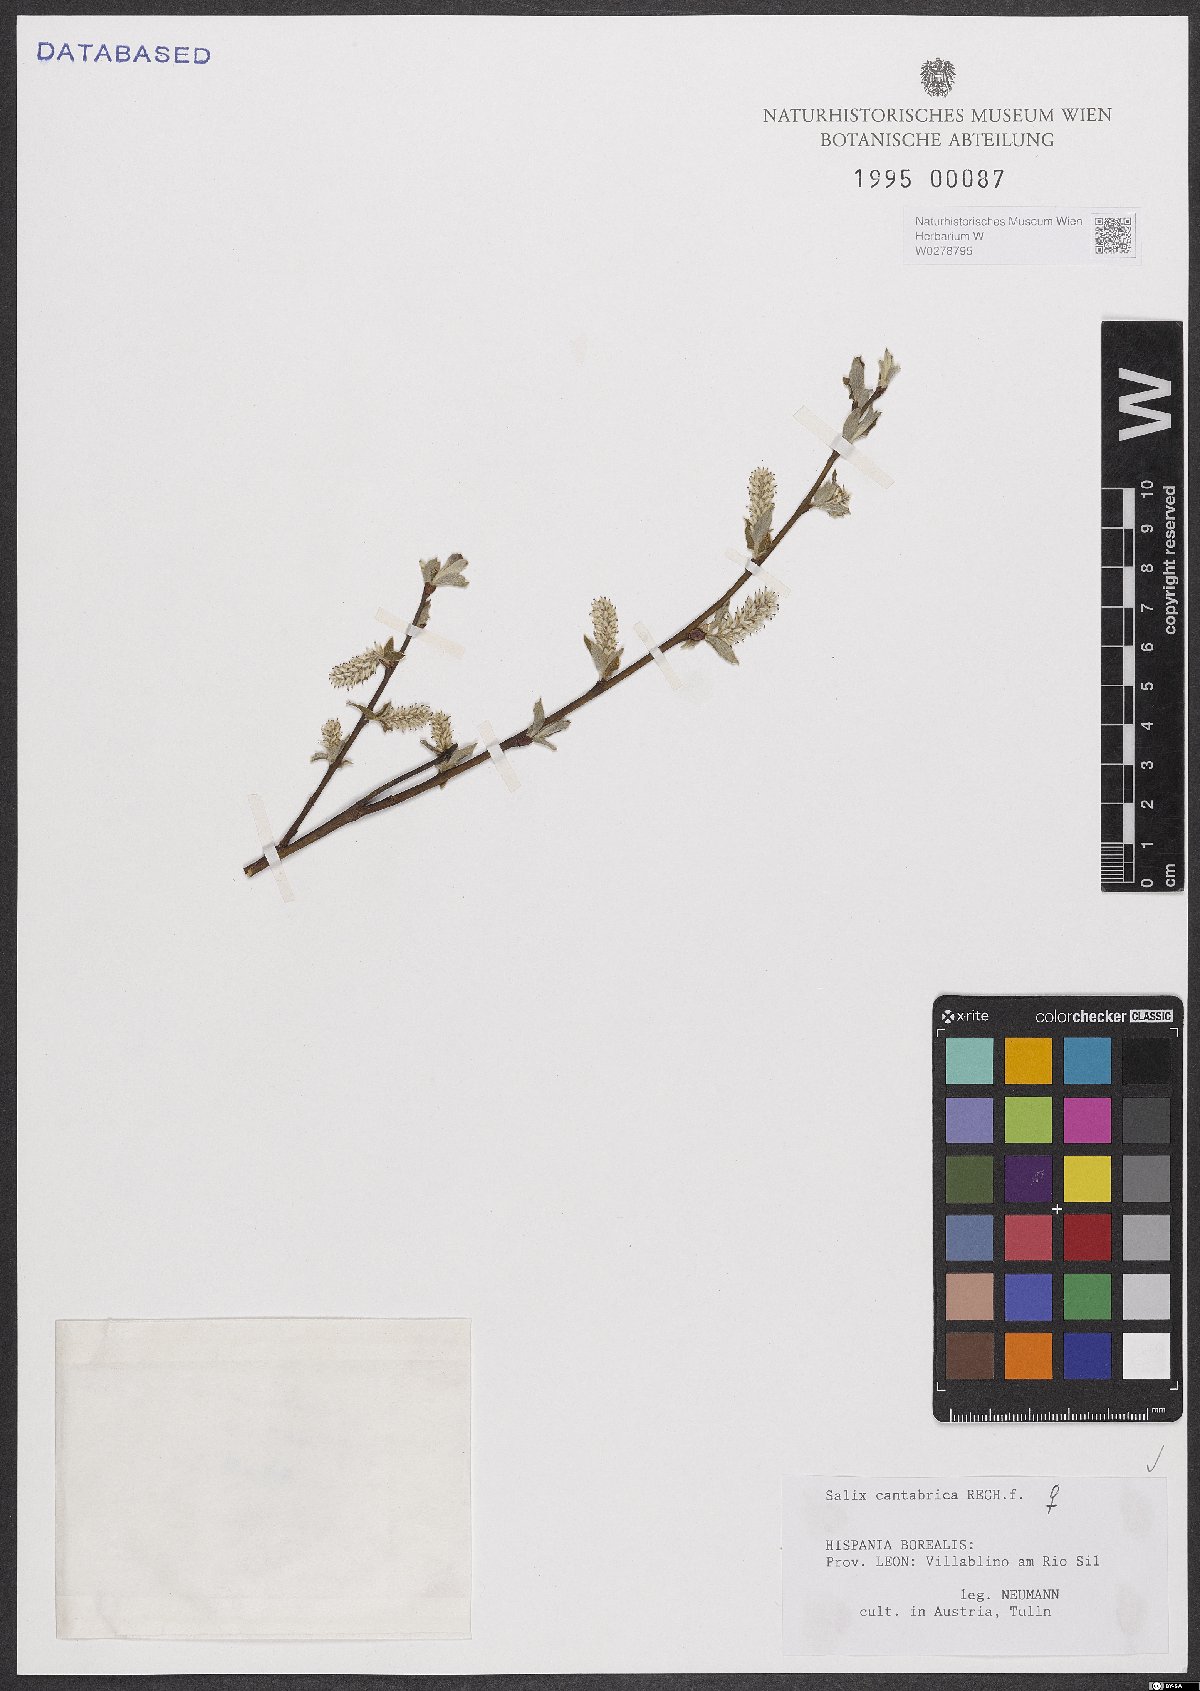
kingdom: Plantae
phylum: Tracheophyta
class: Magnoliopsida
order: Malpighiales
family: Salicaceae
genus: Salix
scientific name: Salix cantabrica
